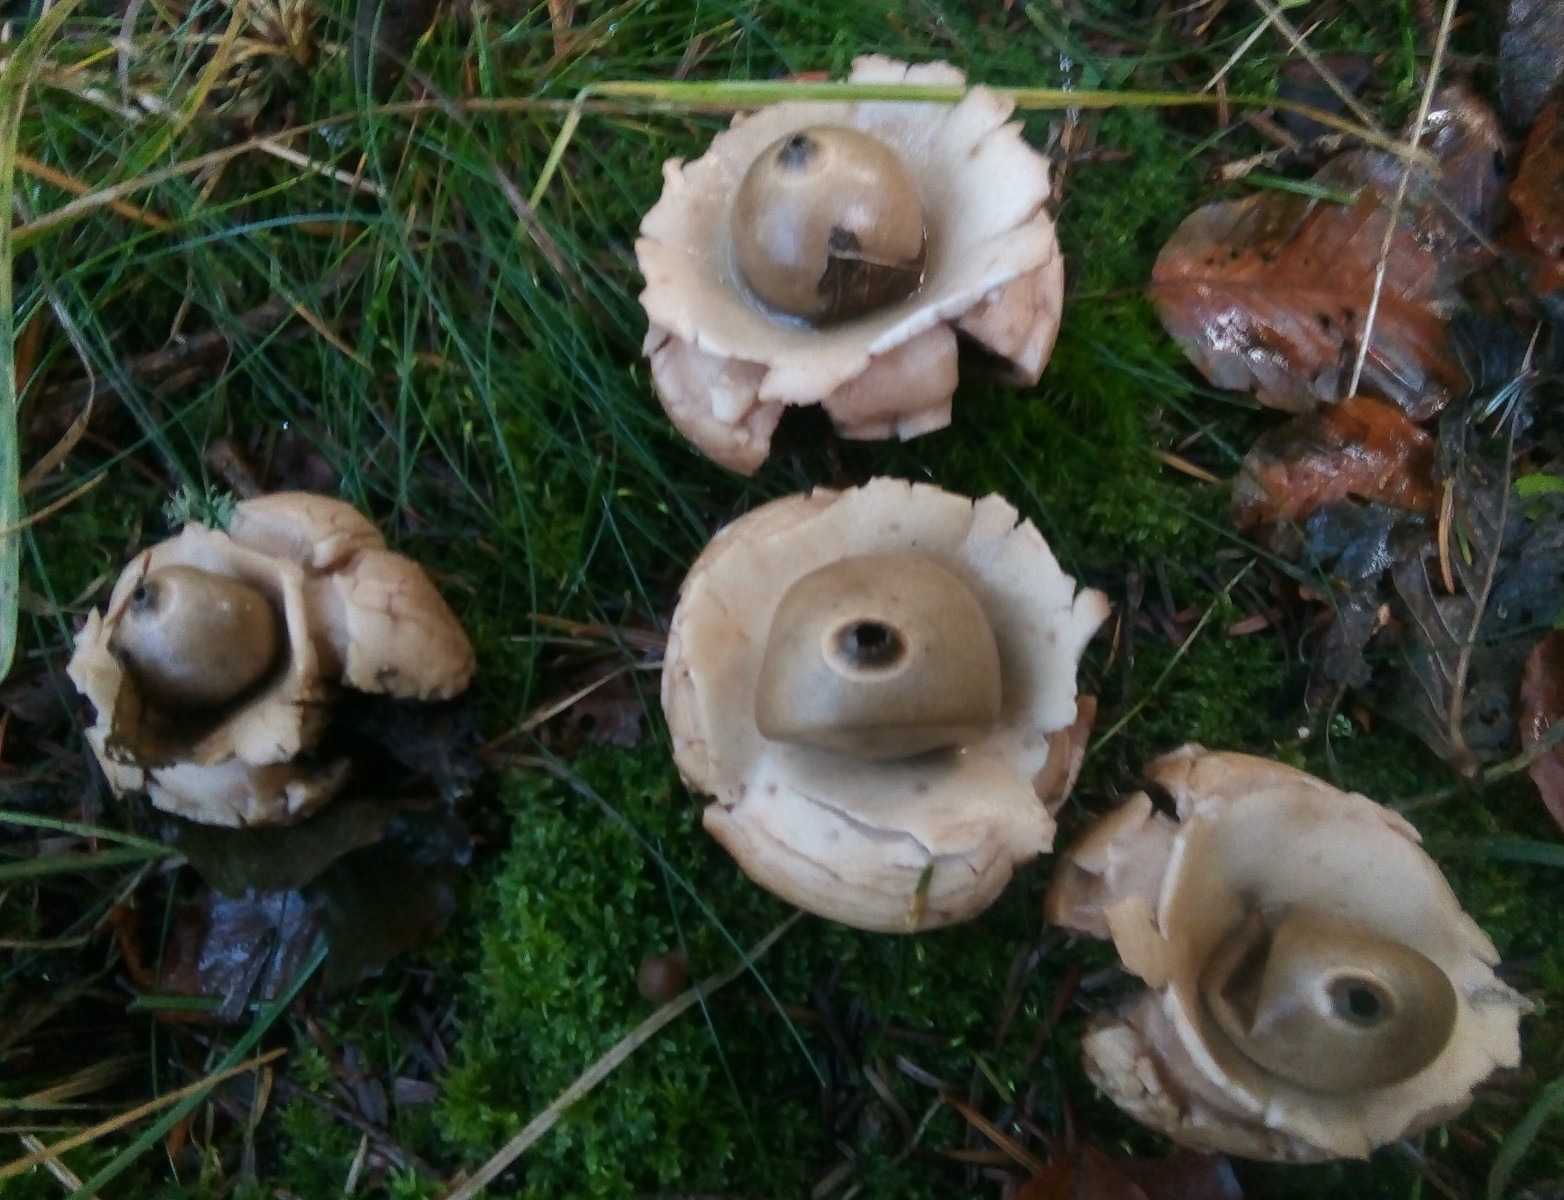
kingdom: Fungi
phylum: Basidiomycota
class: Agaricomycetes
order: Geastrales
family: Geastraceae
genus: Geastrum
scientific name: Geastrum michelianum
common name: kødet stjernebold
